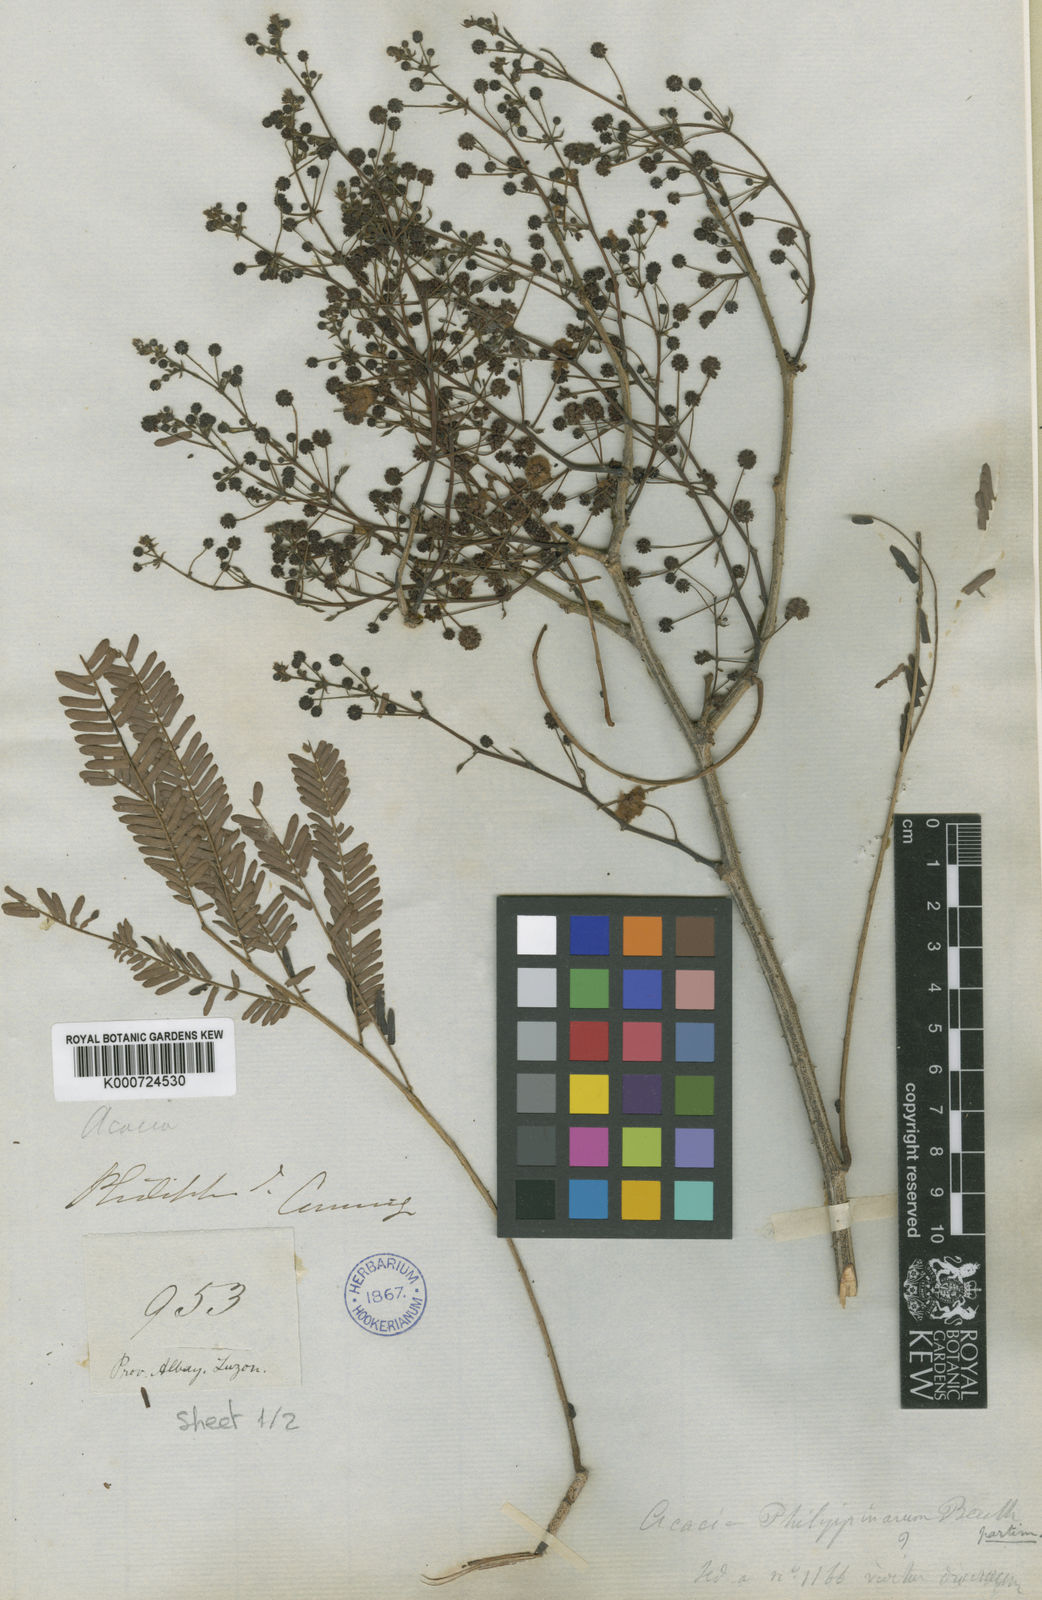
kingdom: Plantae
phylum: Tracheophyta
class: Magnoliopsida
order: Fabales
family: Fabaceae
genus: Senegalia
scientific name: Senegalia rugata
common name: Soap-pod
